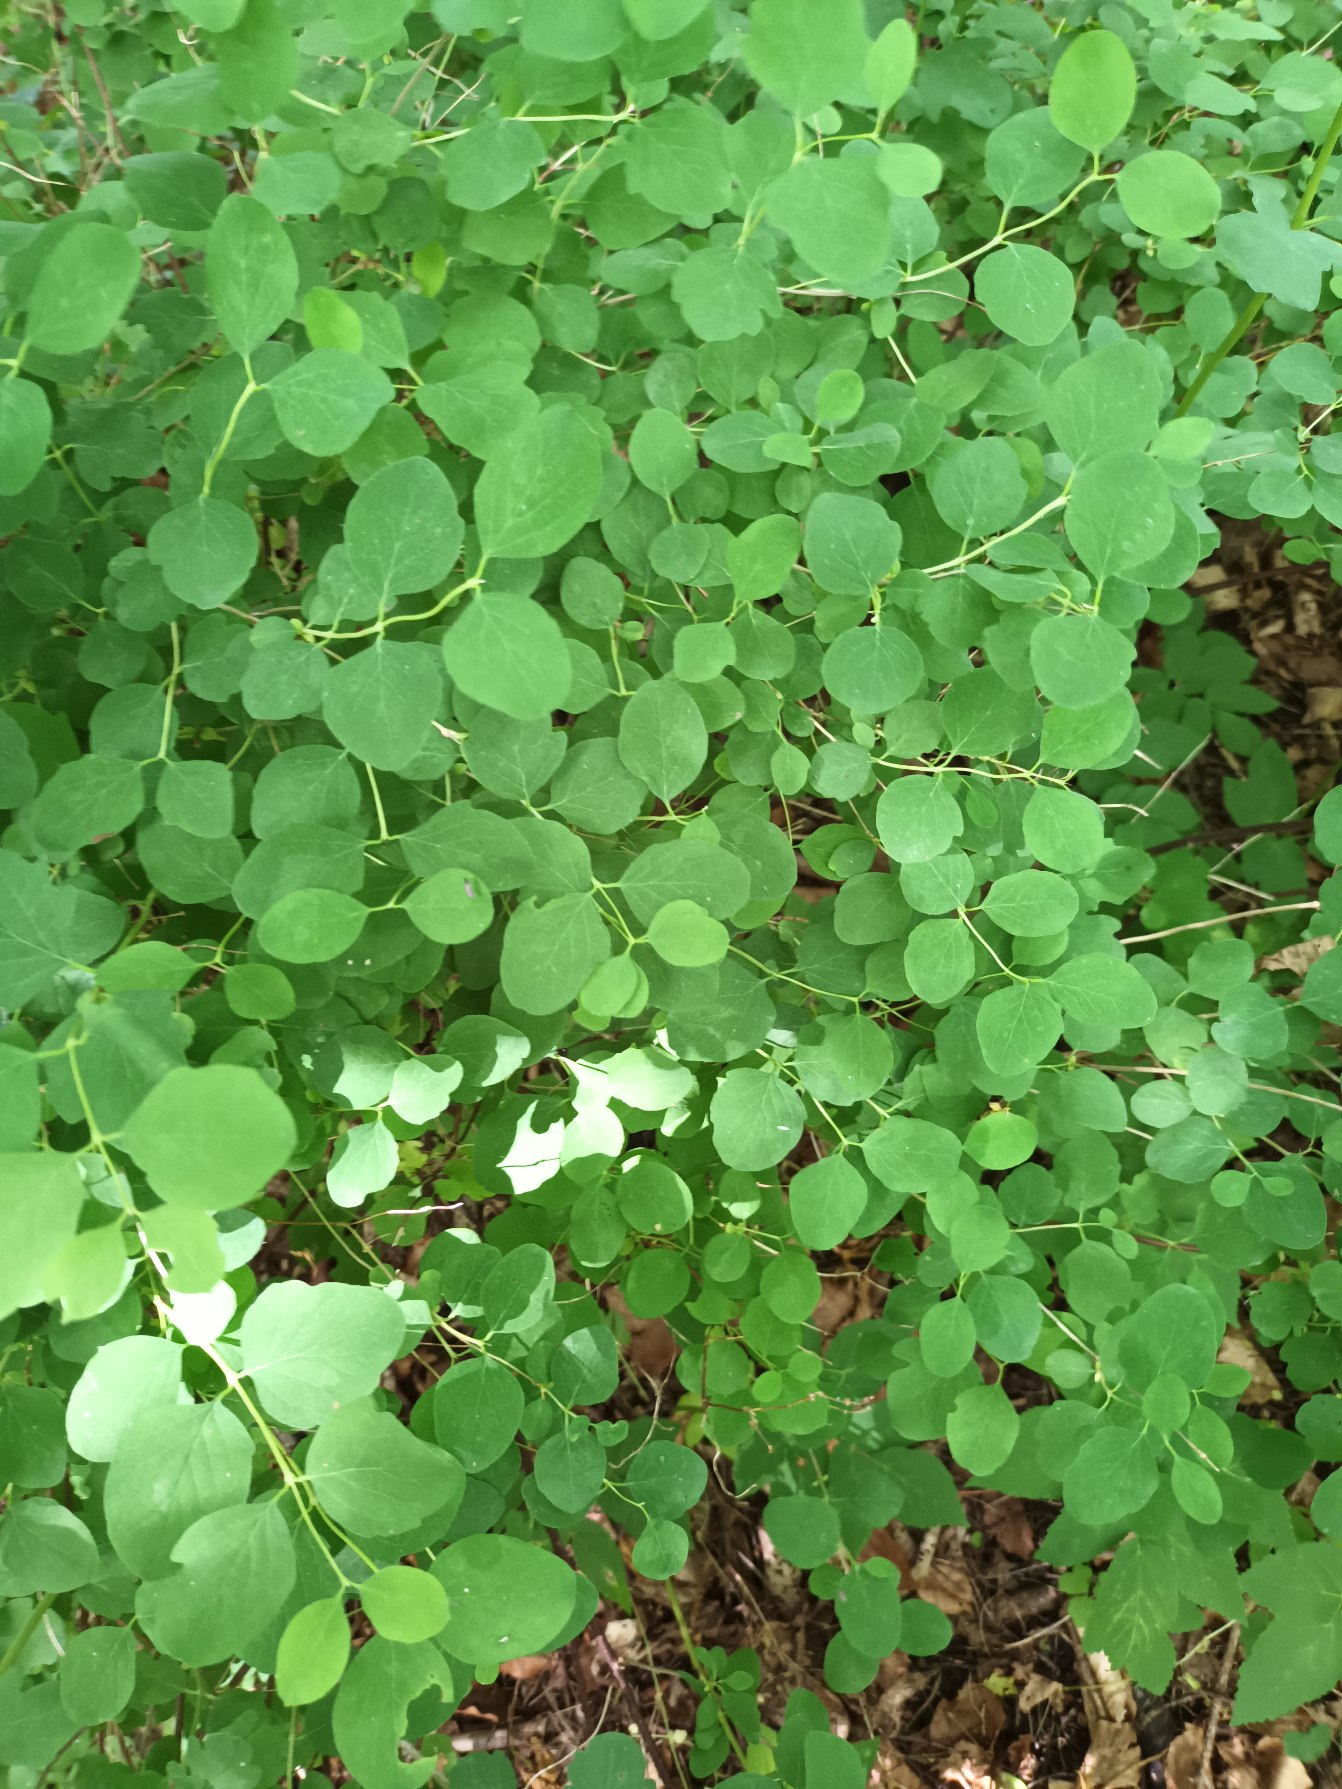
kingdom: Plantae
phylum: Tracheophyta
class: Magnoliopsida
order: Dipsacales
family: Caprifoliaceae
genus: Symphoricarpos
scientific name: Symphoricarpos albus
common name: Almindelig snebær
